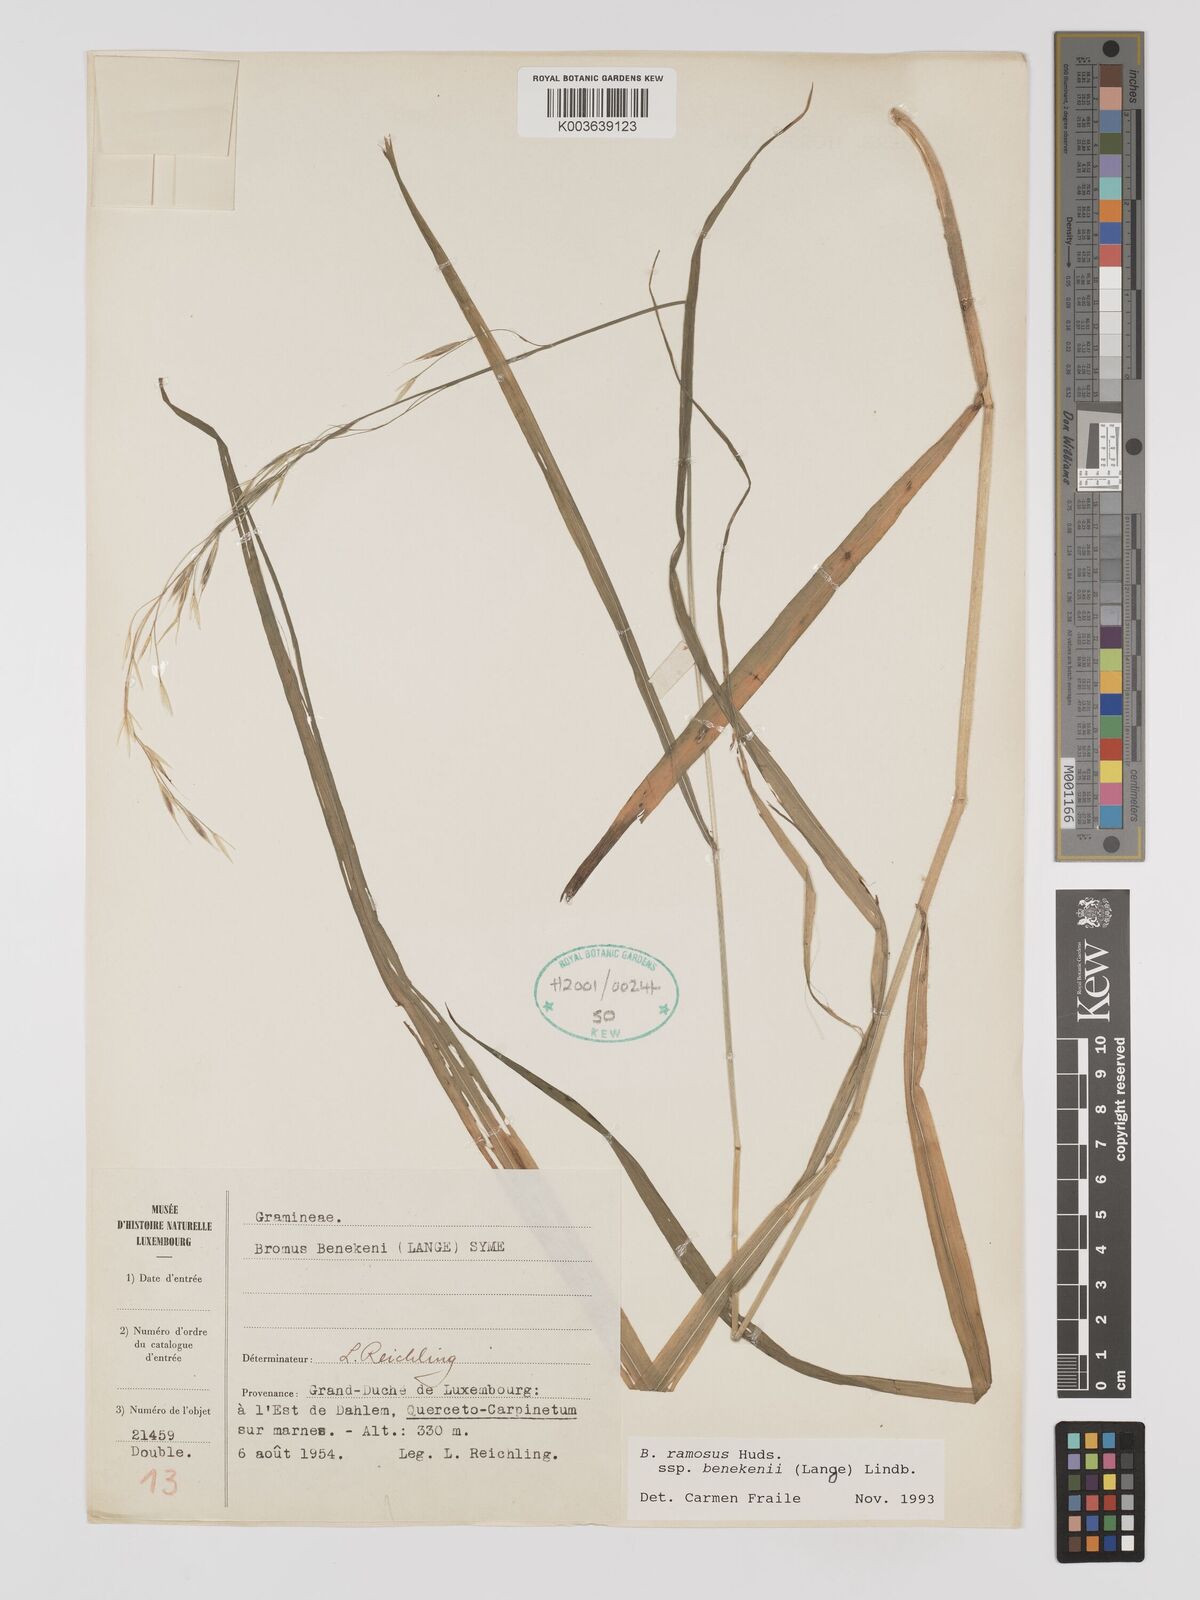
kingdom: Plantae
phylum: Tracheophyta
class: Liliopsida
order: Poales
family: Poaceae
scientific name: Poaceae
